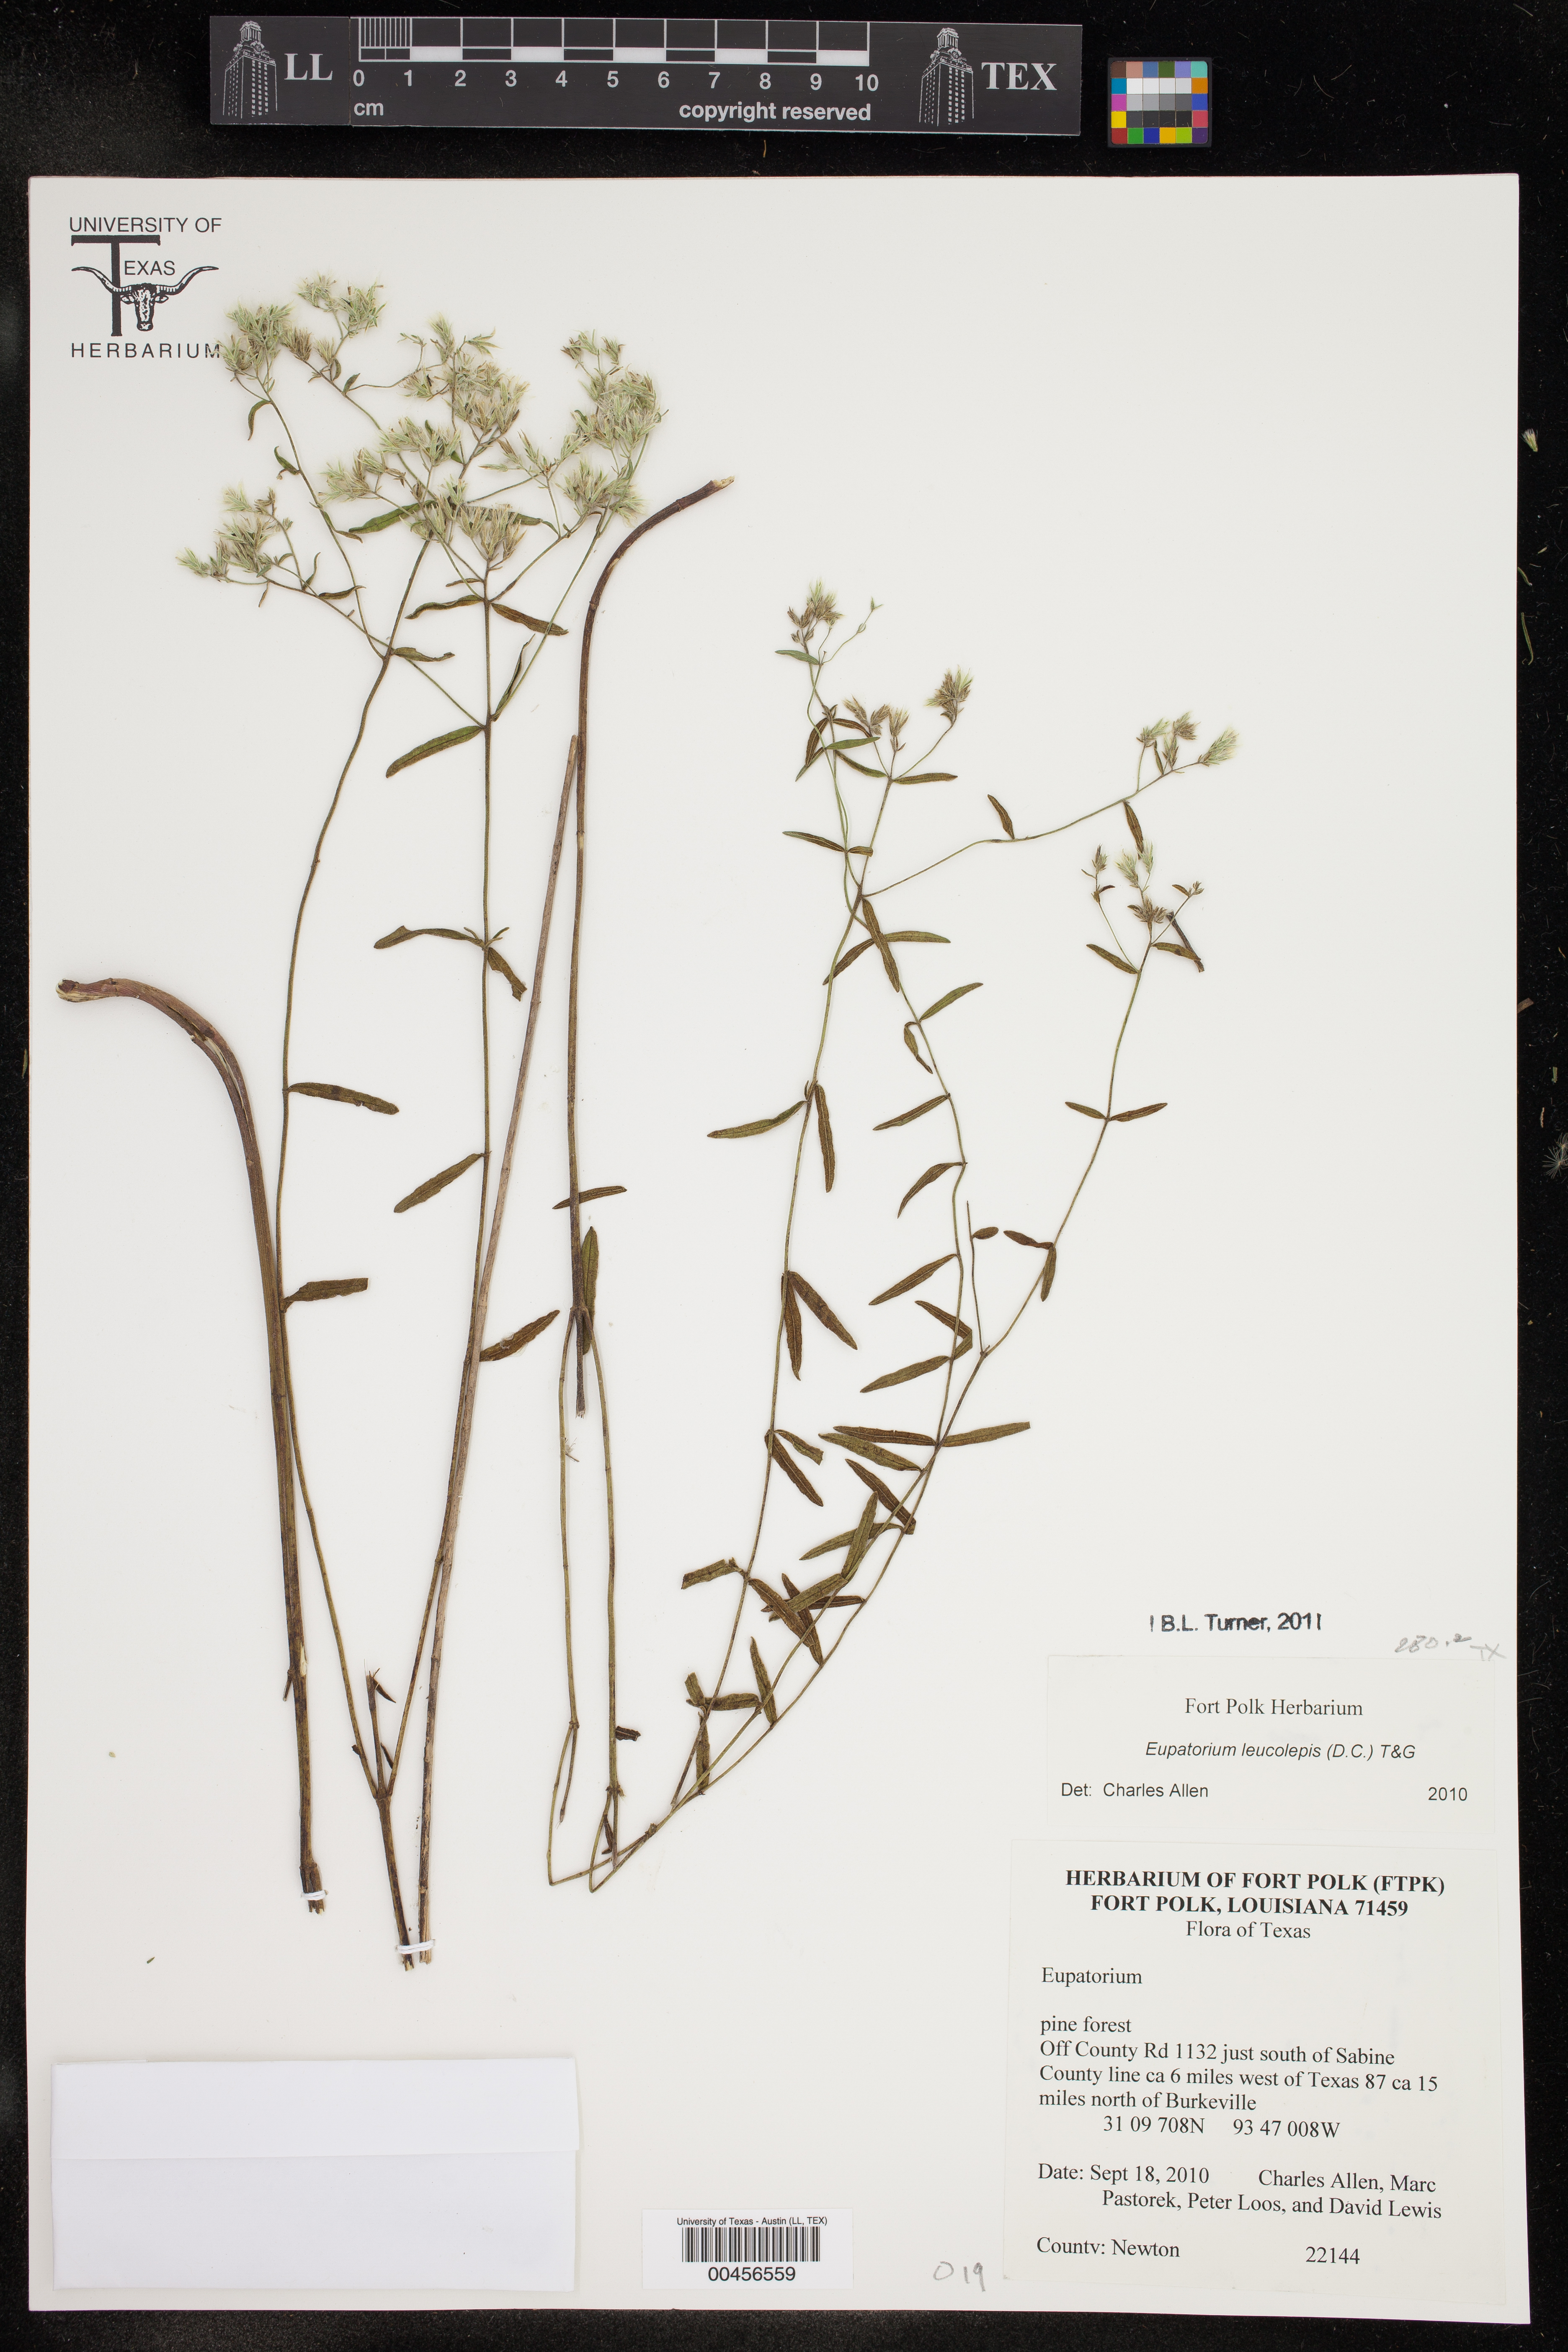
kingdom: Plantae
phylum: Tracheophyta
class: Magnoliopsida
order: Asterales
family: Asteraceae
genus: Eupatorium
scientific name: Eupatorium leucolepis
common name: Justiceweed
